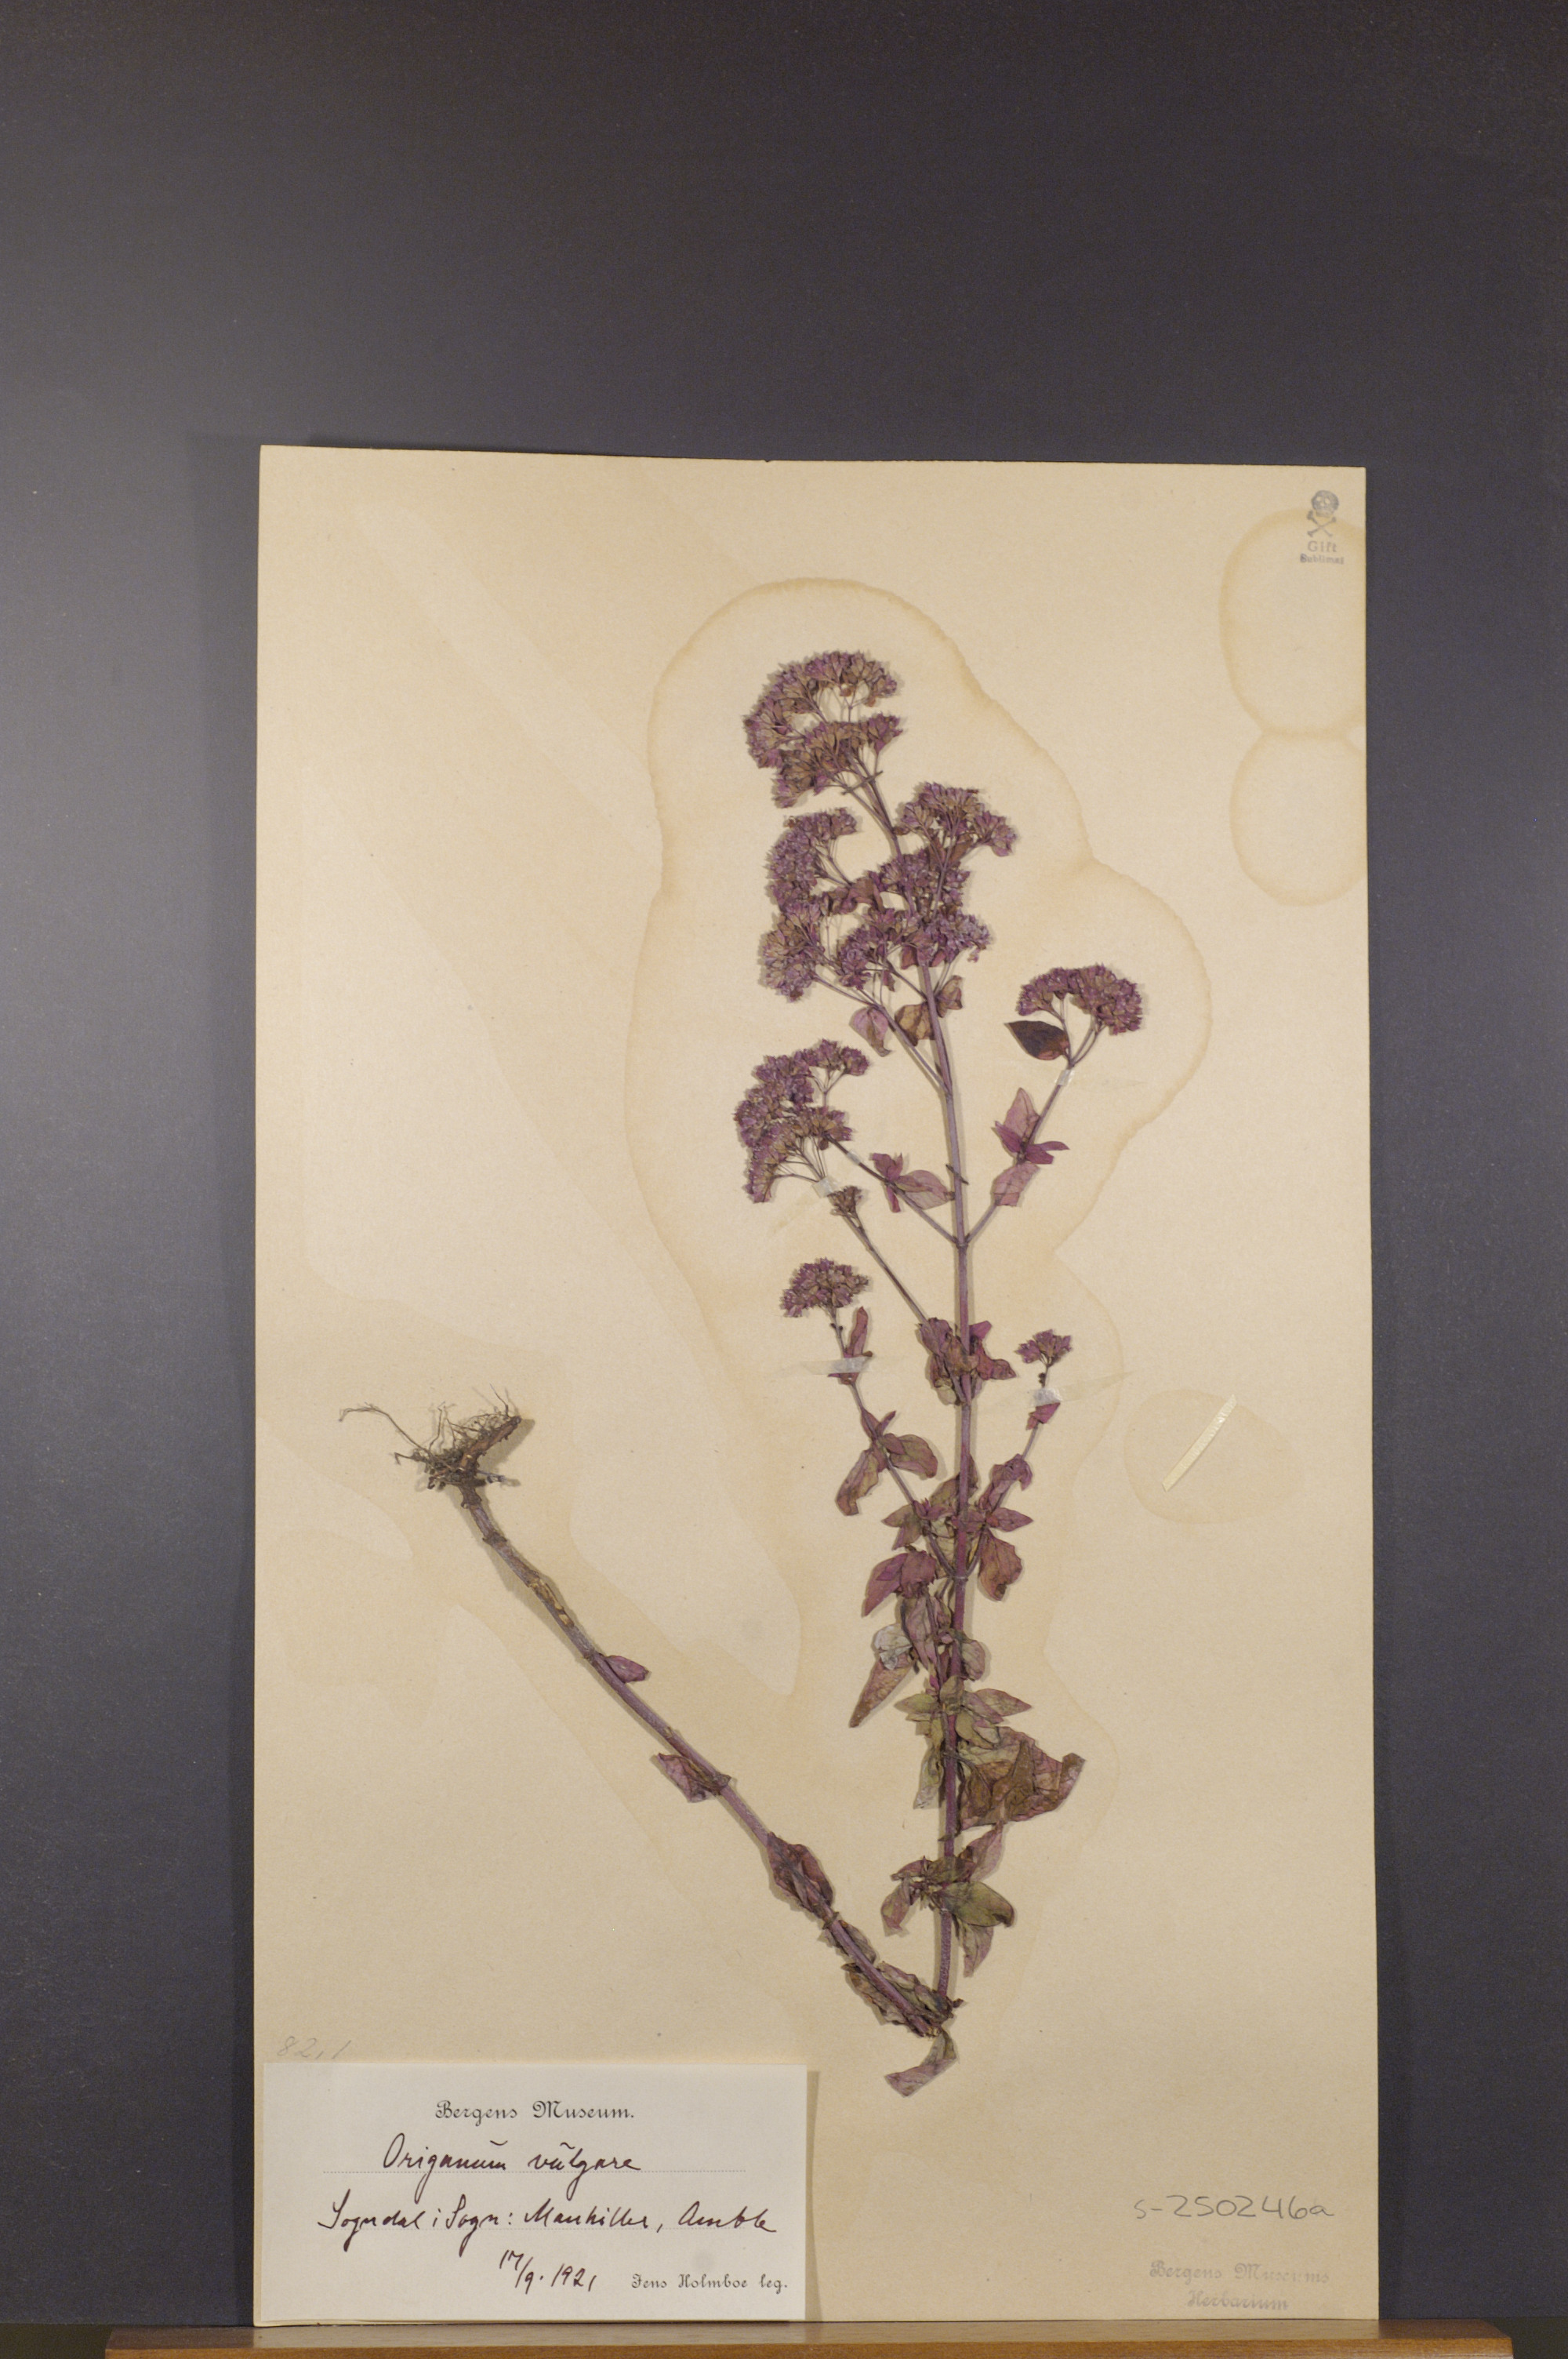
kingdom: Plantae
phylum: Tracheophyta
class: Magnoliopsida
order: Lamiales
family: Lamiaceae
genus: Origanum
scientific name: Origanum vulgare
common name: Wild marjoram
